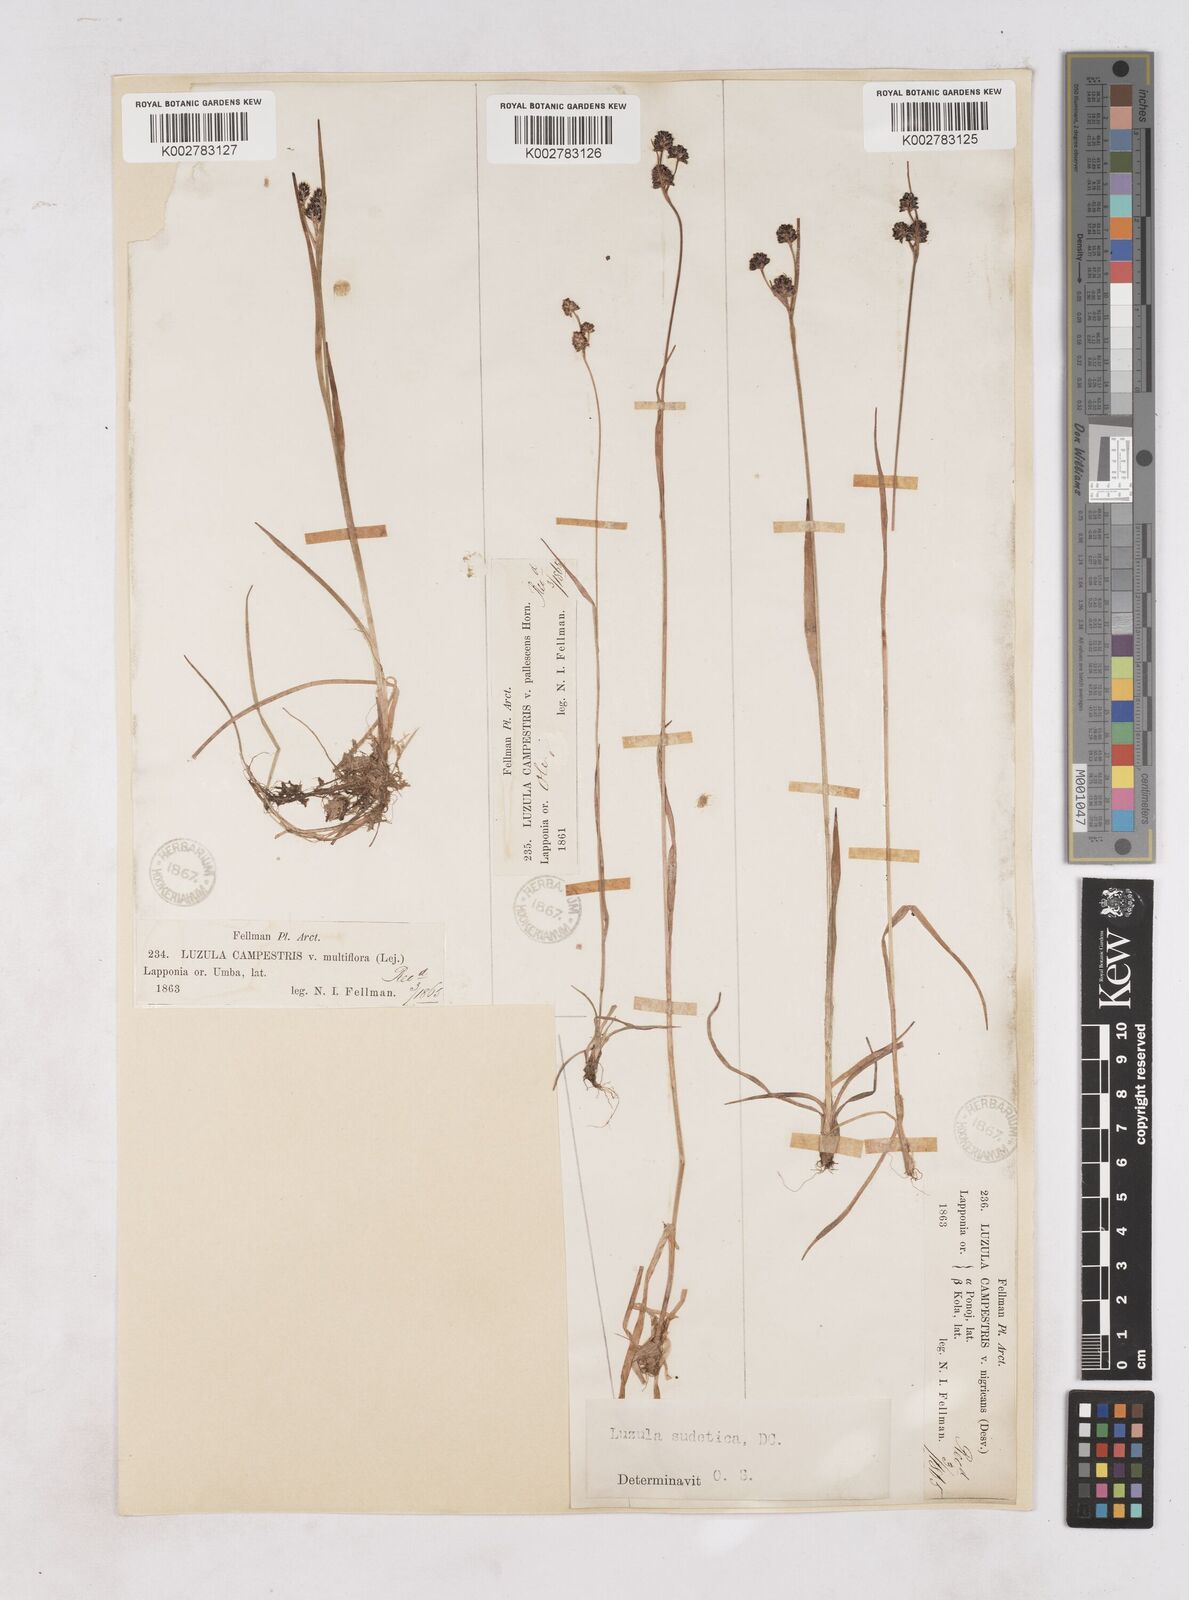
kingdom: Plantae
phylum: Tracheophyta
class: Liliopsida
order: Poales
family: Juncaceae
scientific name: Juncaceae
